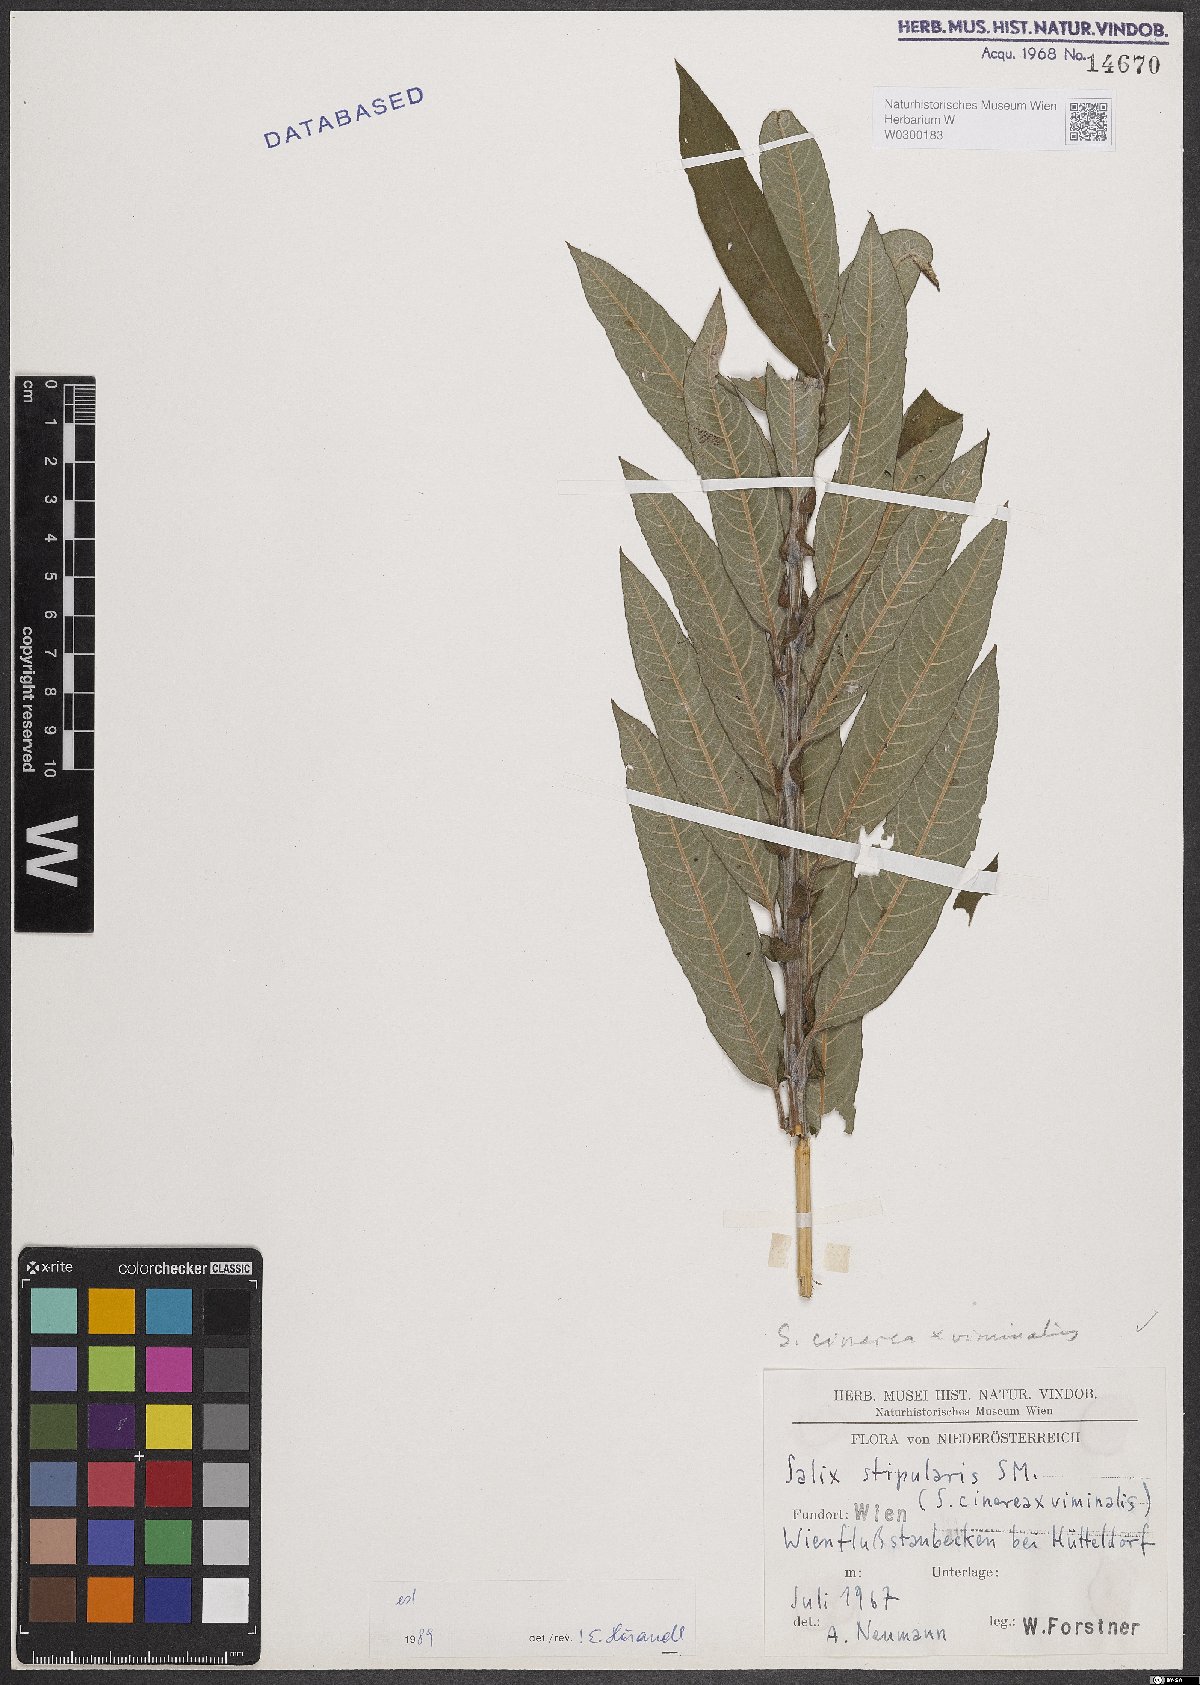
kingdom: Plantae
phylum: Tracheophyta
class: Magnoliopsida
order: Malpighiales
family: Salicaceae
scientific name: Salicaceae
